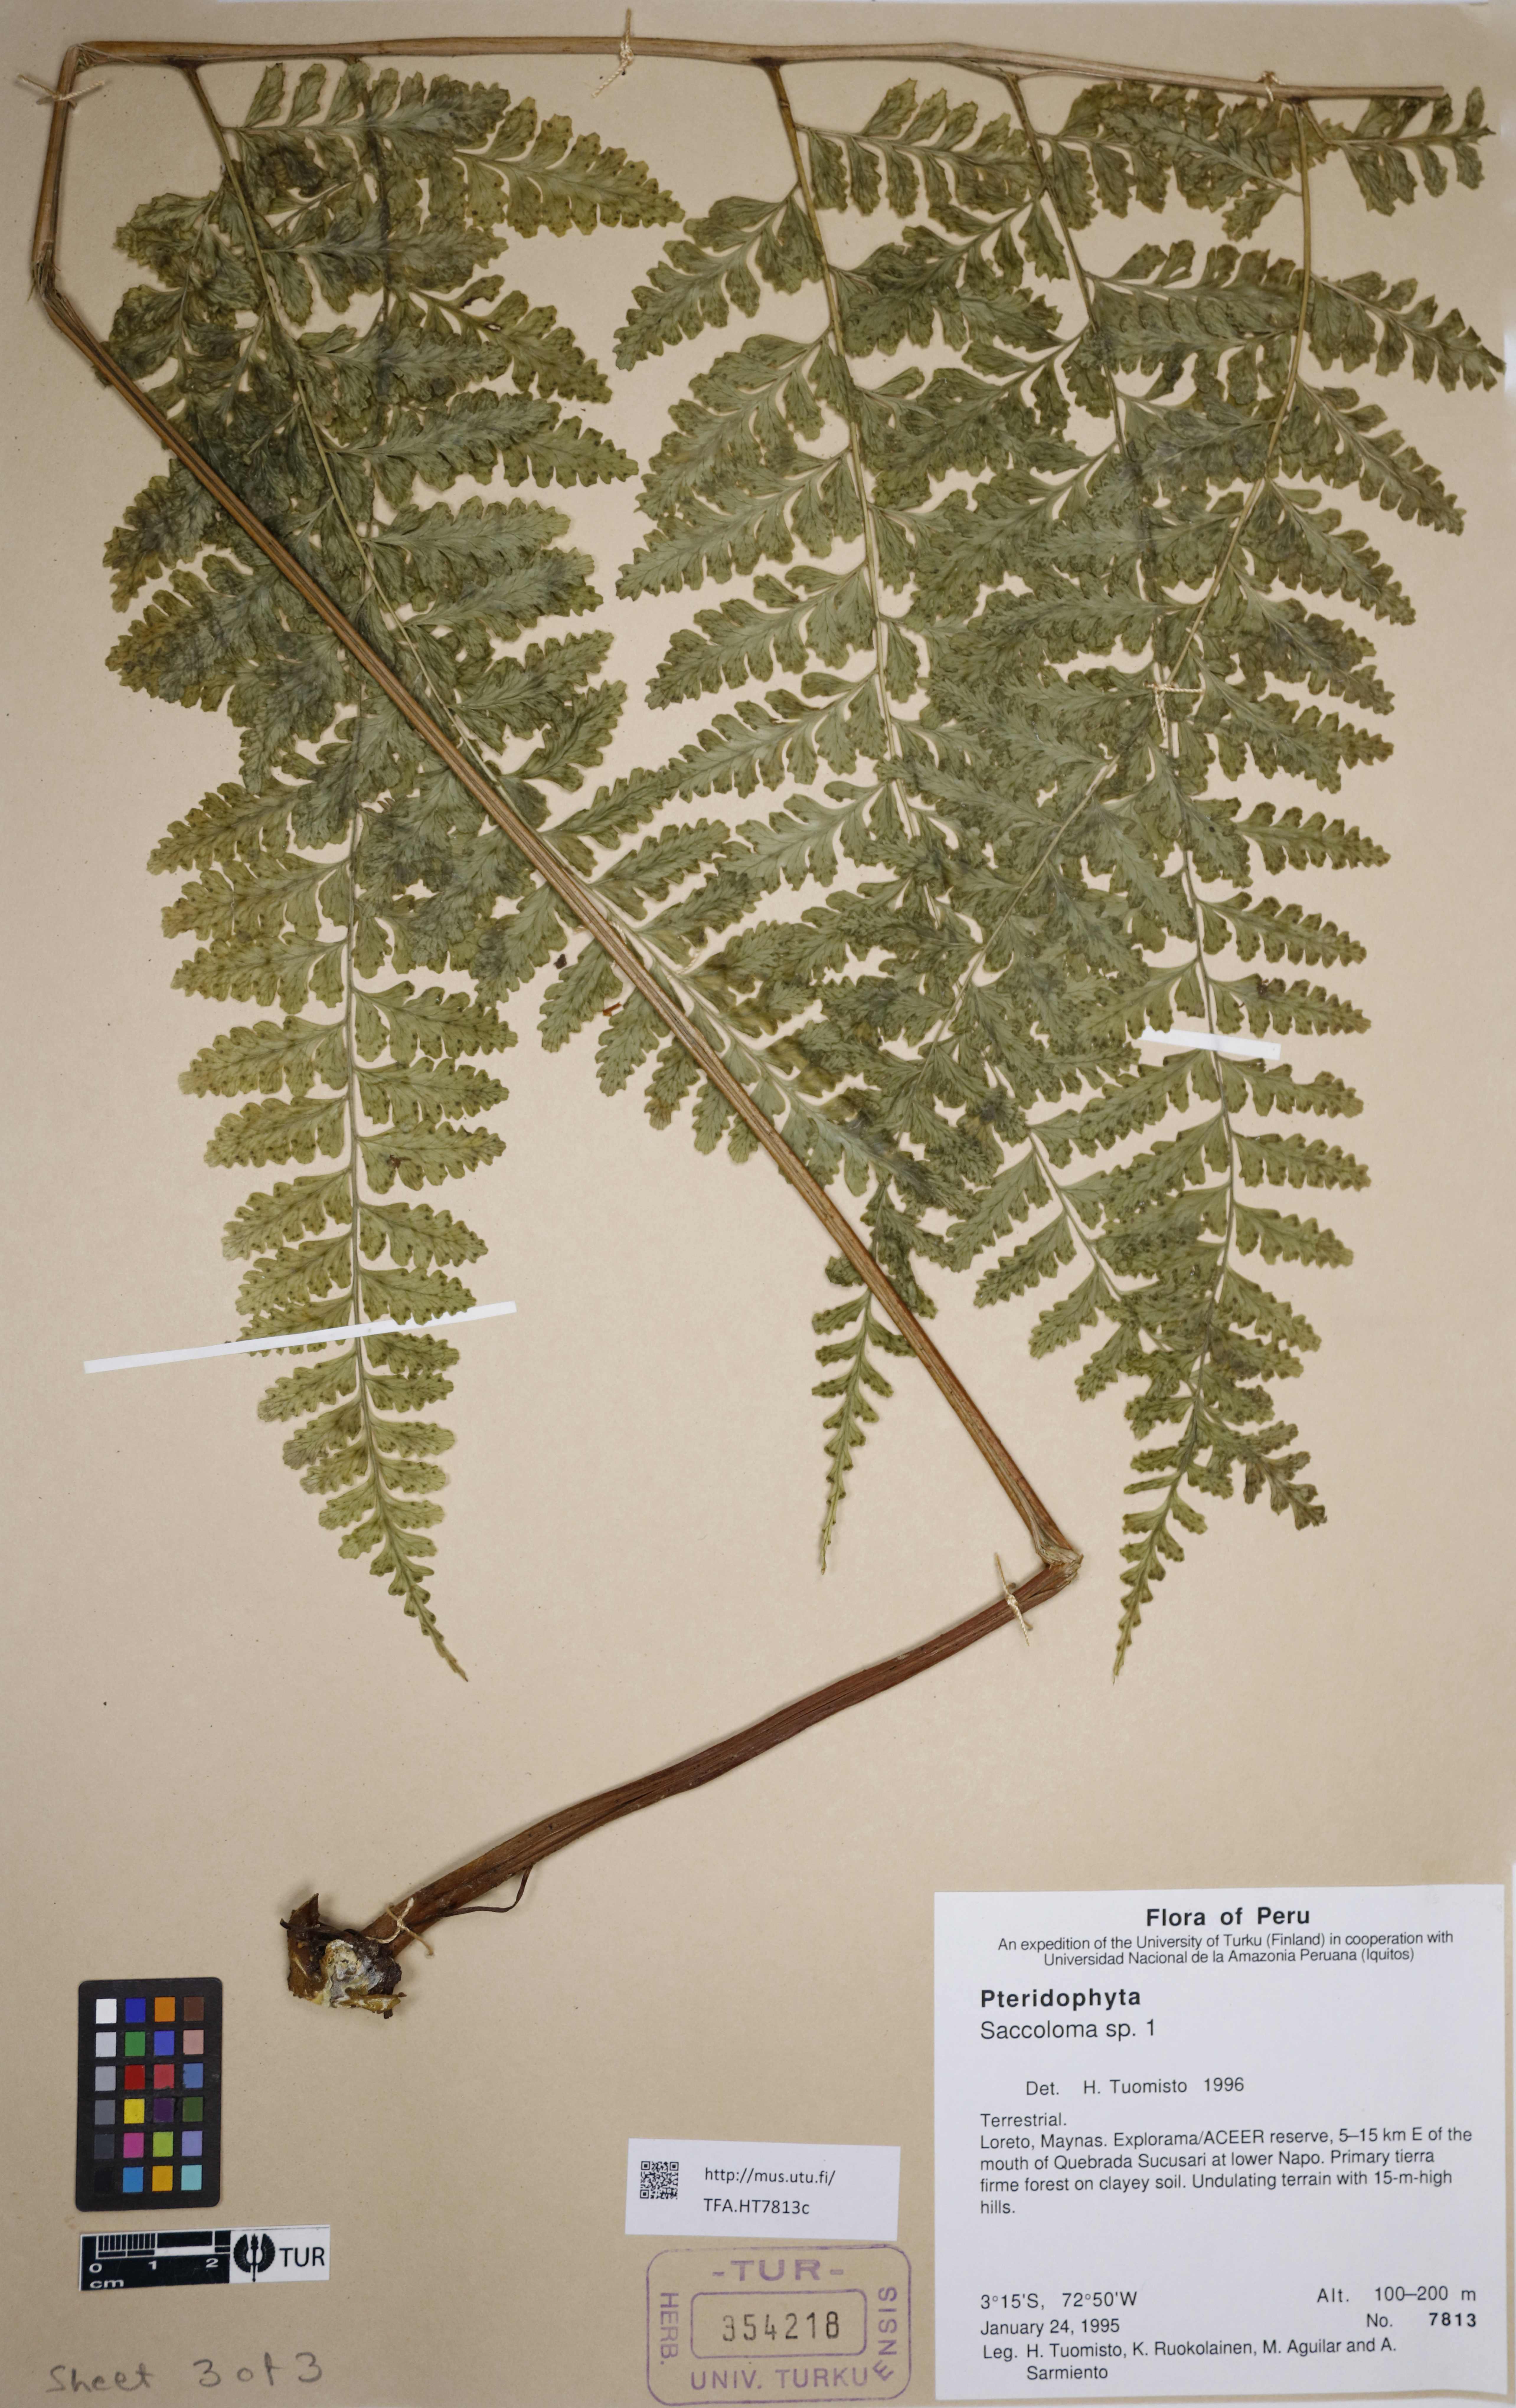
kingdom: Plantae
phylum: Tracheophyta
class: Polypodiopsida
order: Polypodiales
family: Saccolomataceae
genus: Saccoloma
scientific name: Saccoloma
